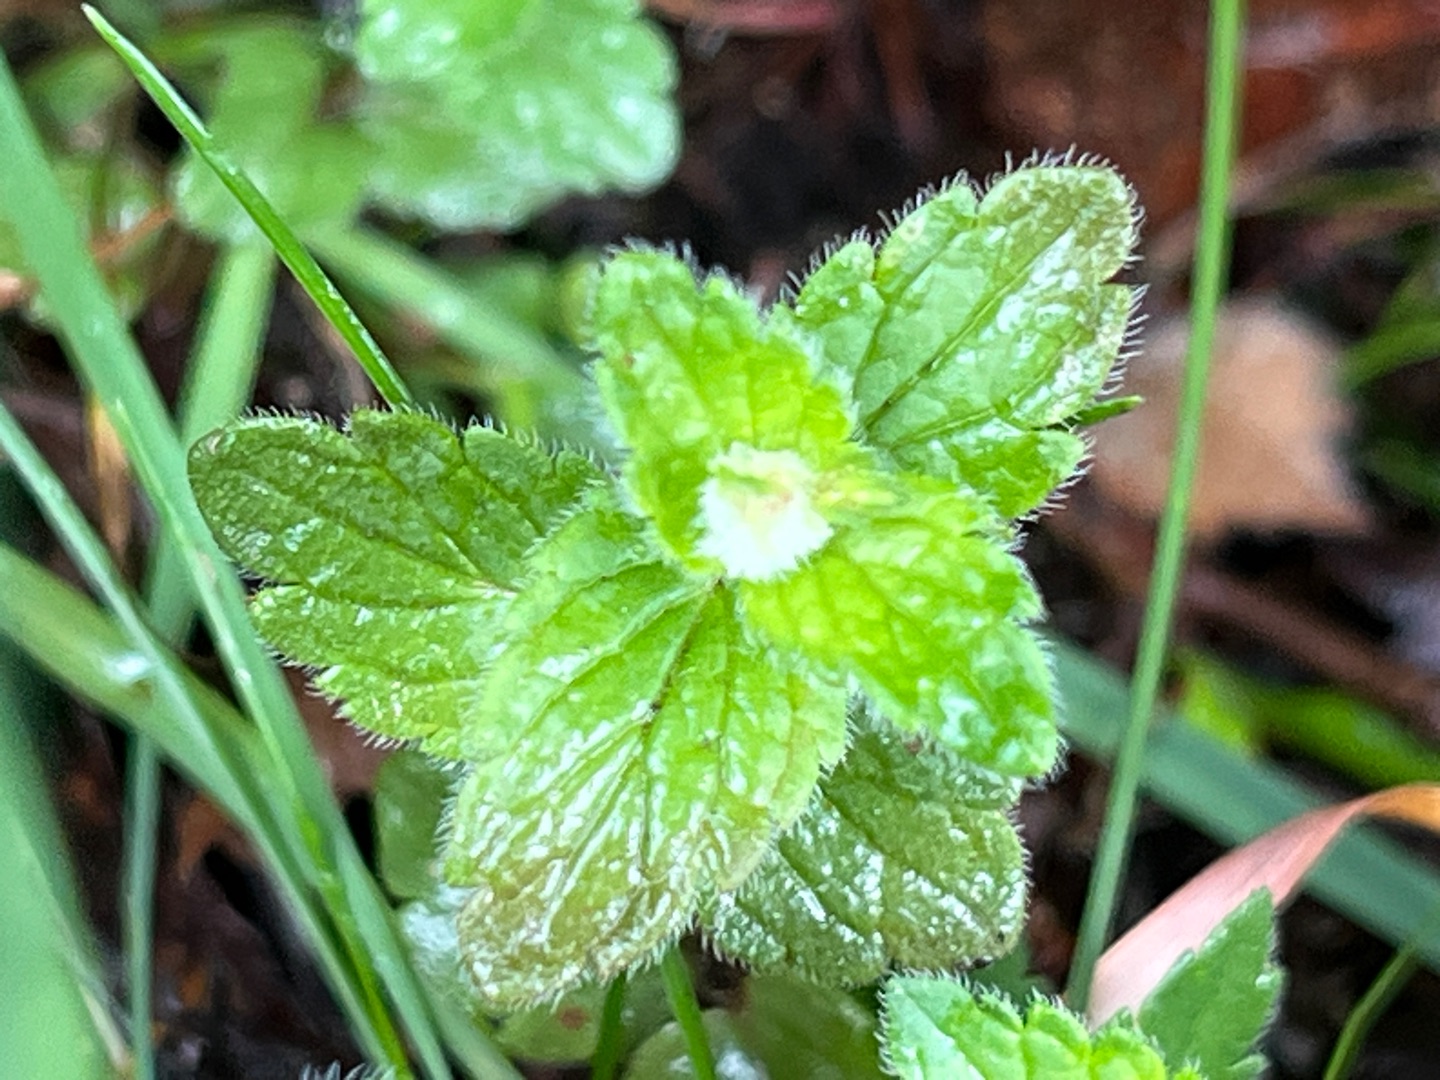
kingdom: Animalia
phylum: Arthropoda
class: Insecta
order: Diptera
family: Cecidomyiidae
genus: Jaapiella
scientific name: Jaapiella veronicae
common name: Ærenprisgalmyg
